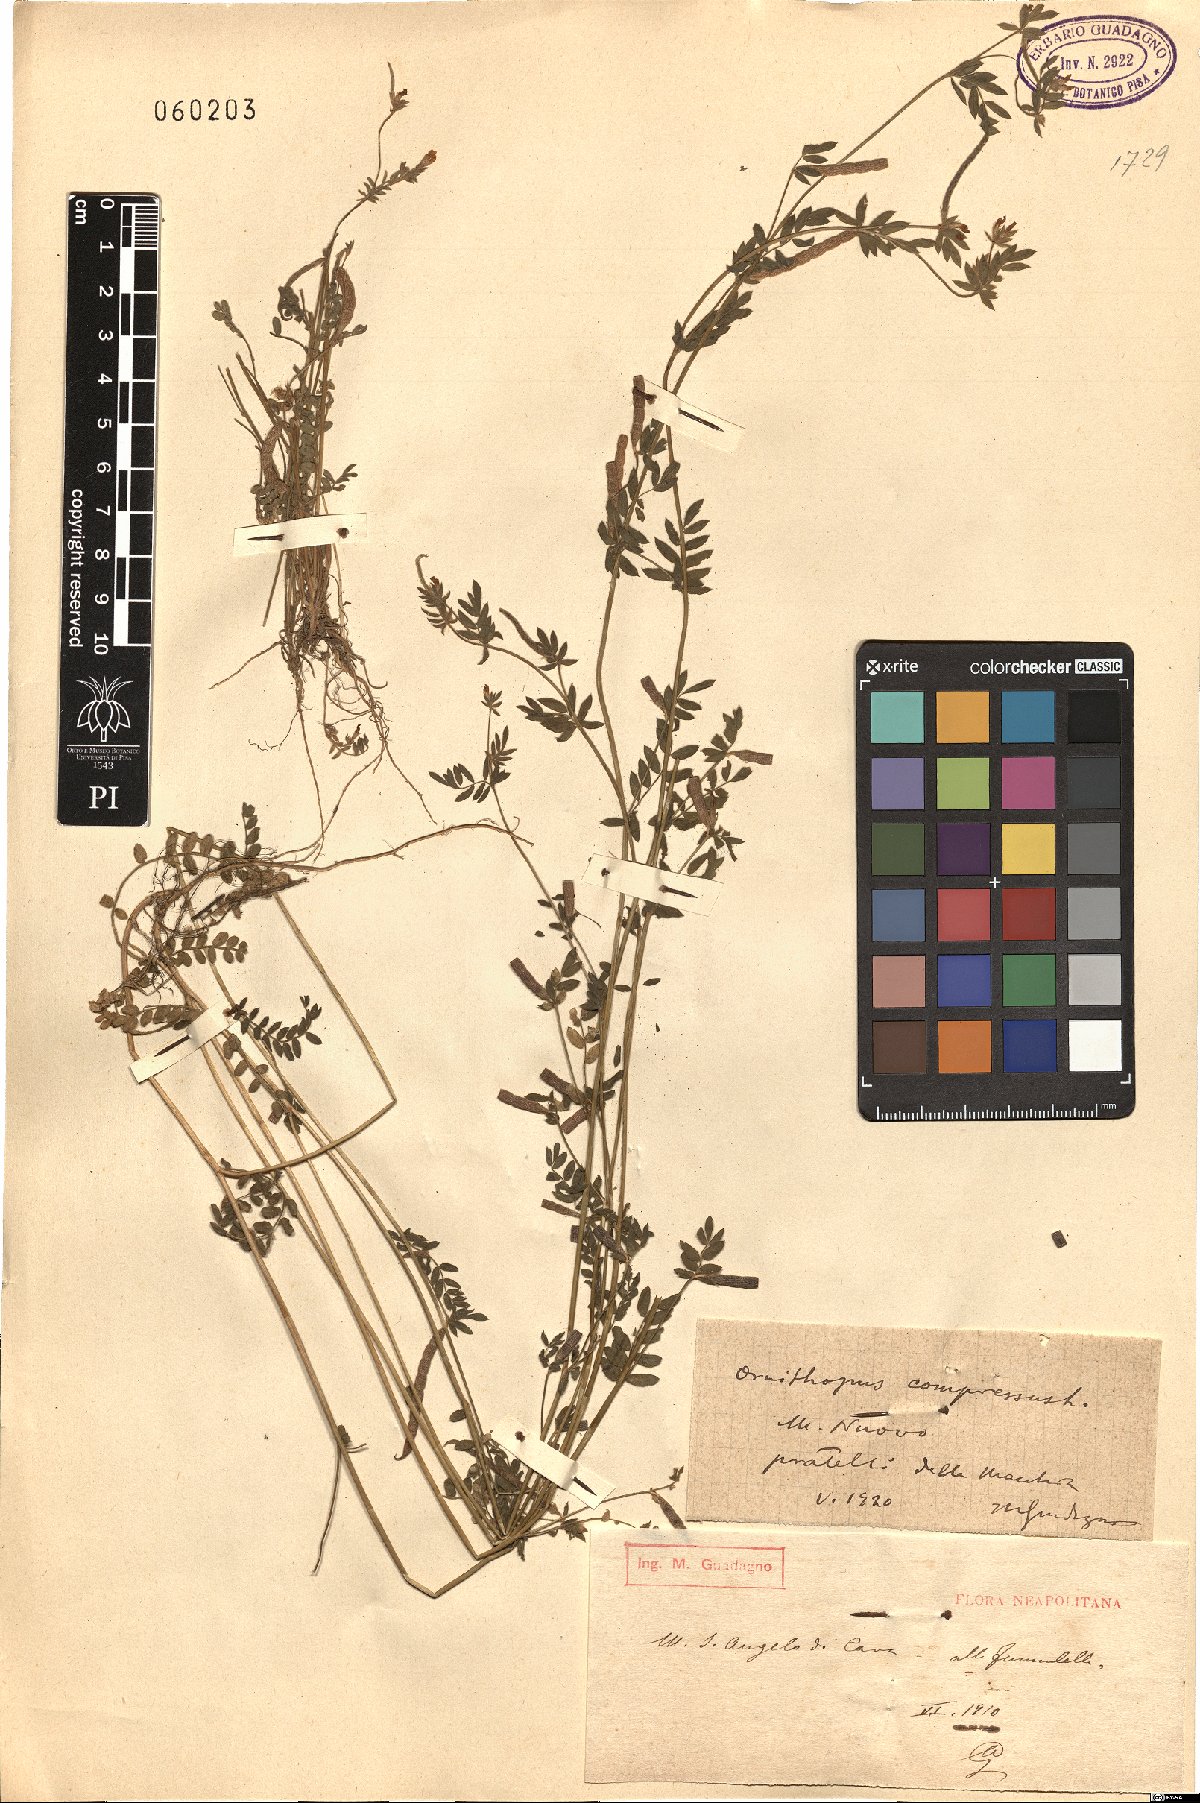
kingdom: Plantae
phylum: Tracheophyta
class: Magnoliopsida
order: Fabales
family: Fabaceae
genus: Ornithopus
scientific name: Ornithopus compressus
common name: Yellow serradella
